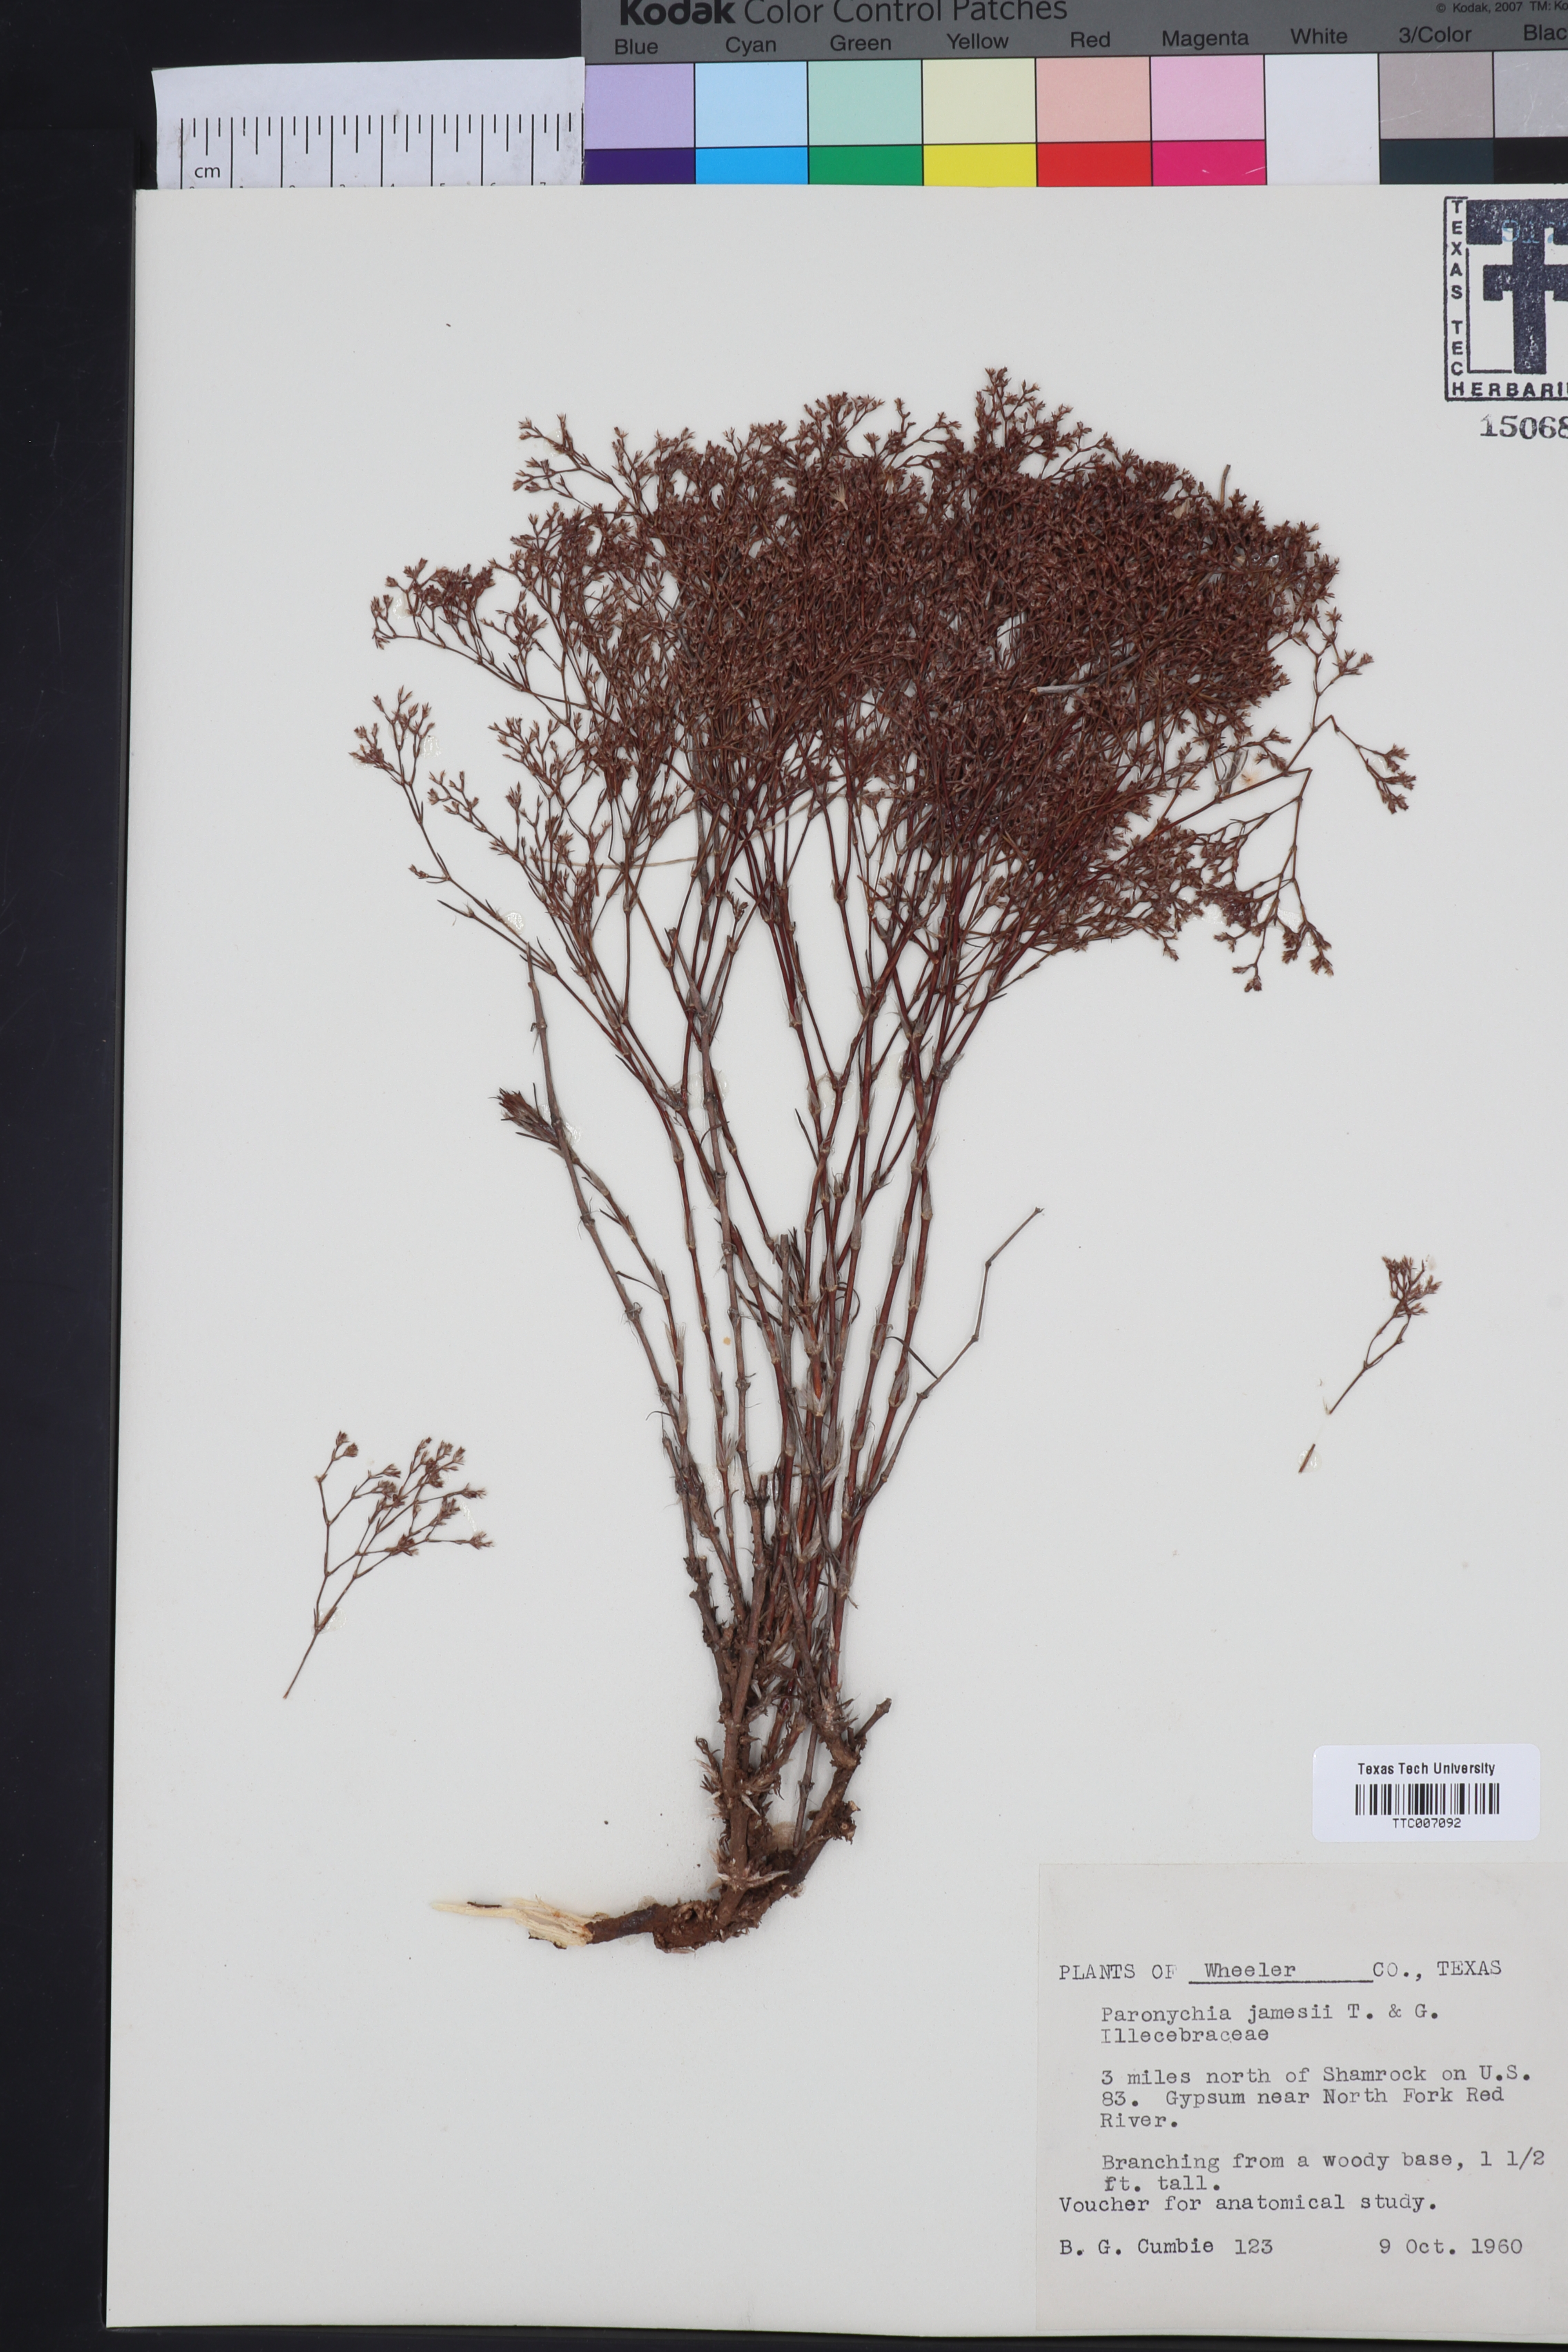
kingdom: Plantae
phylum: Tracheophyta
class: Magnoliopsida
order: Caryophyllales
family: Caryophyllaceae
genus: Paronychia
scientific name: Paronychia jamesii
